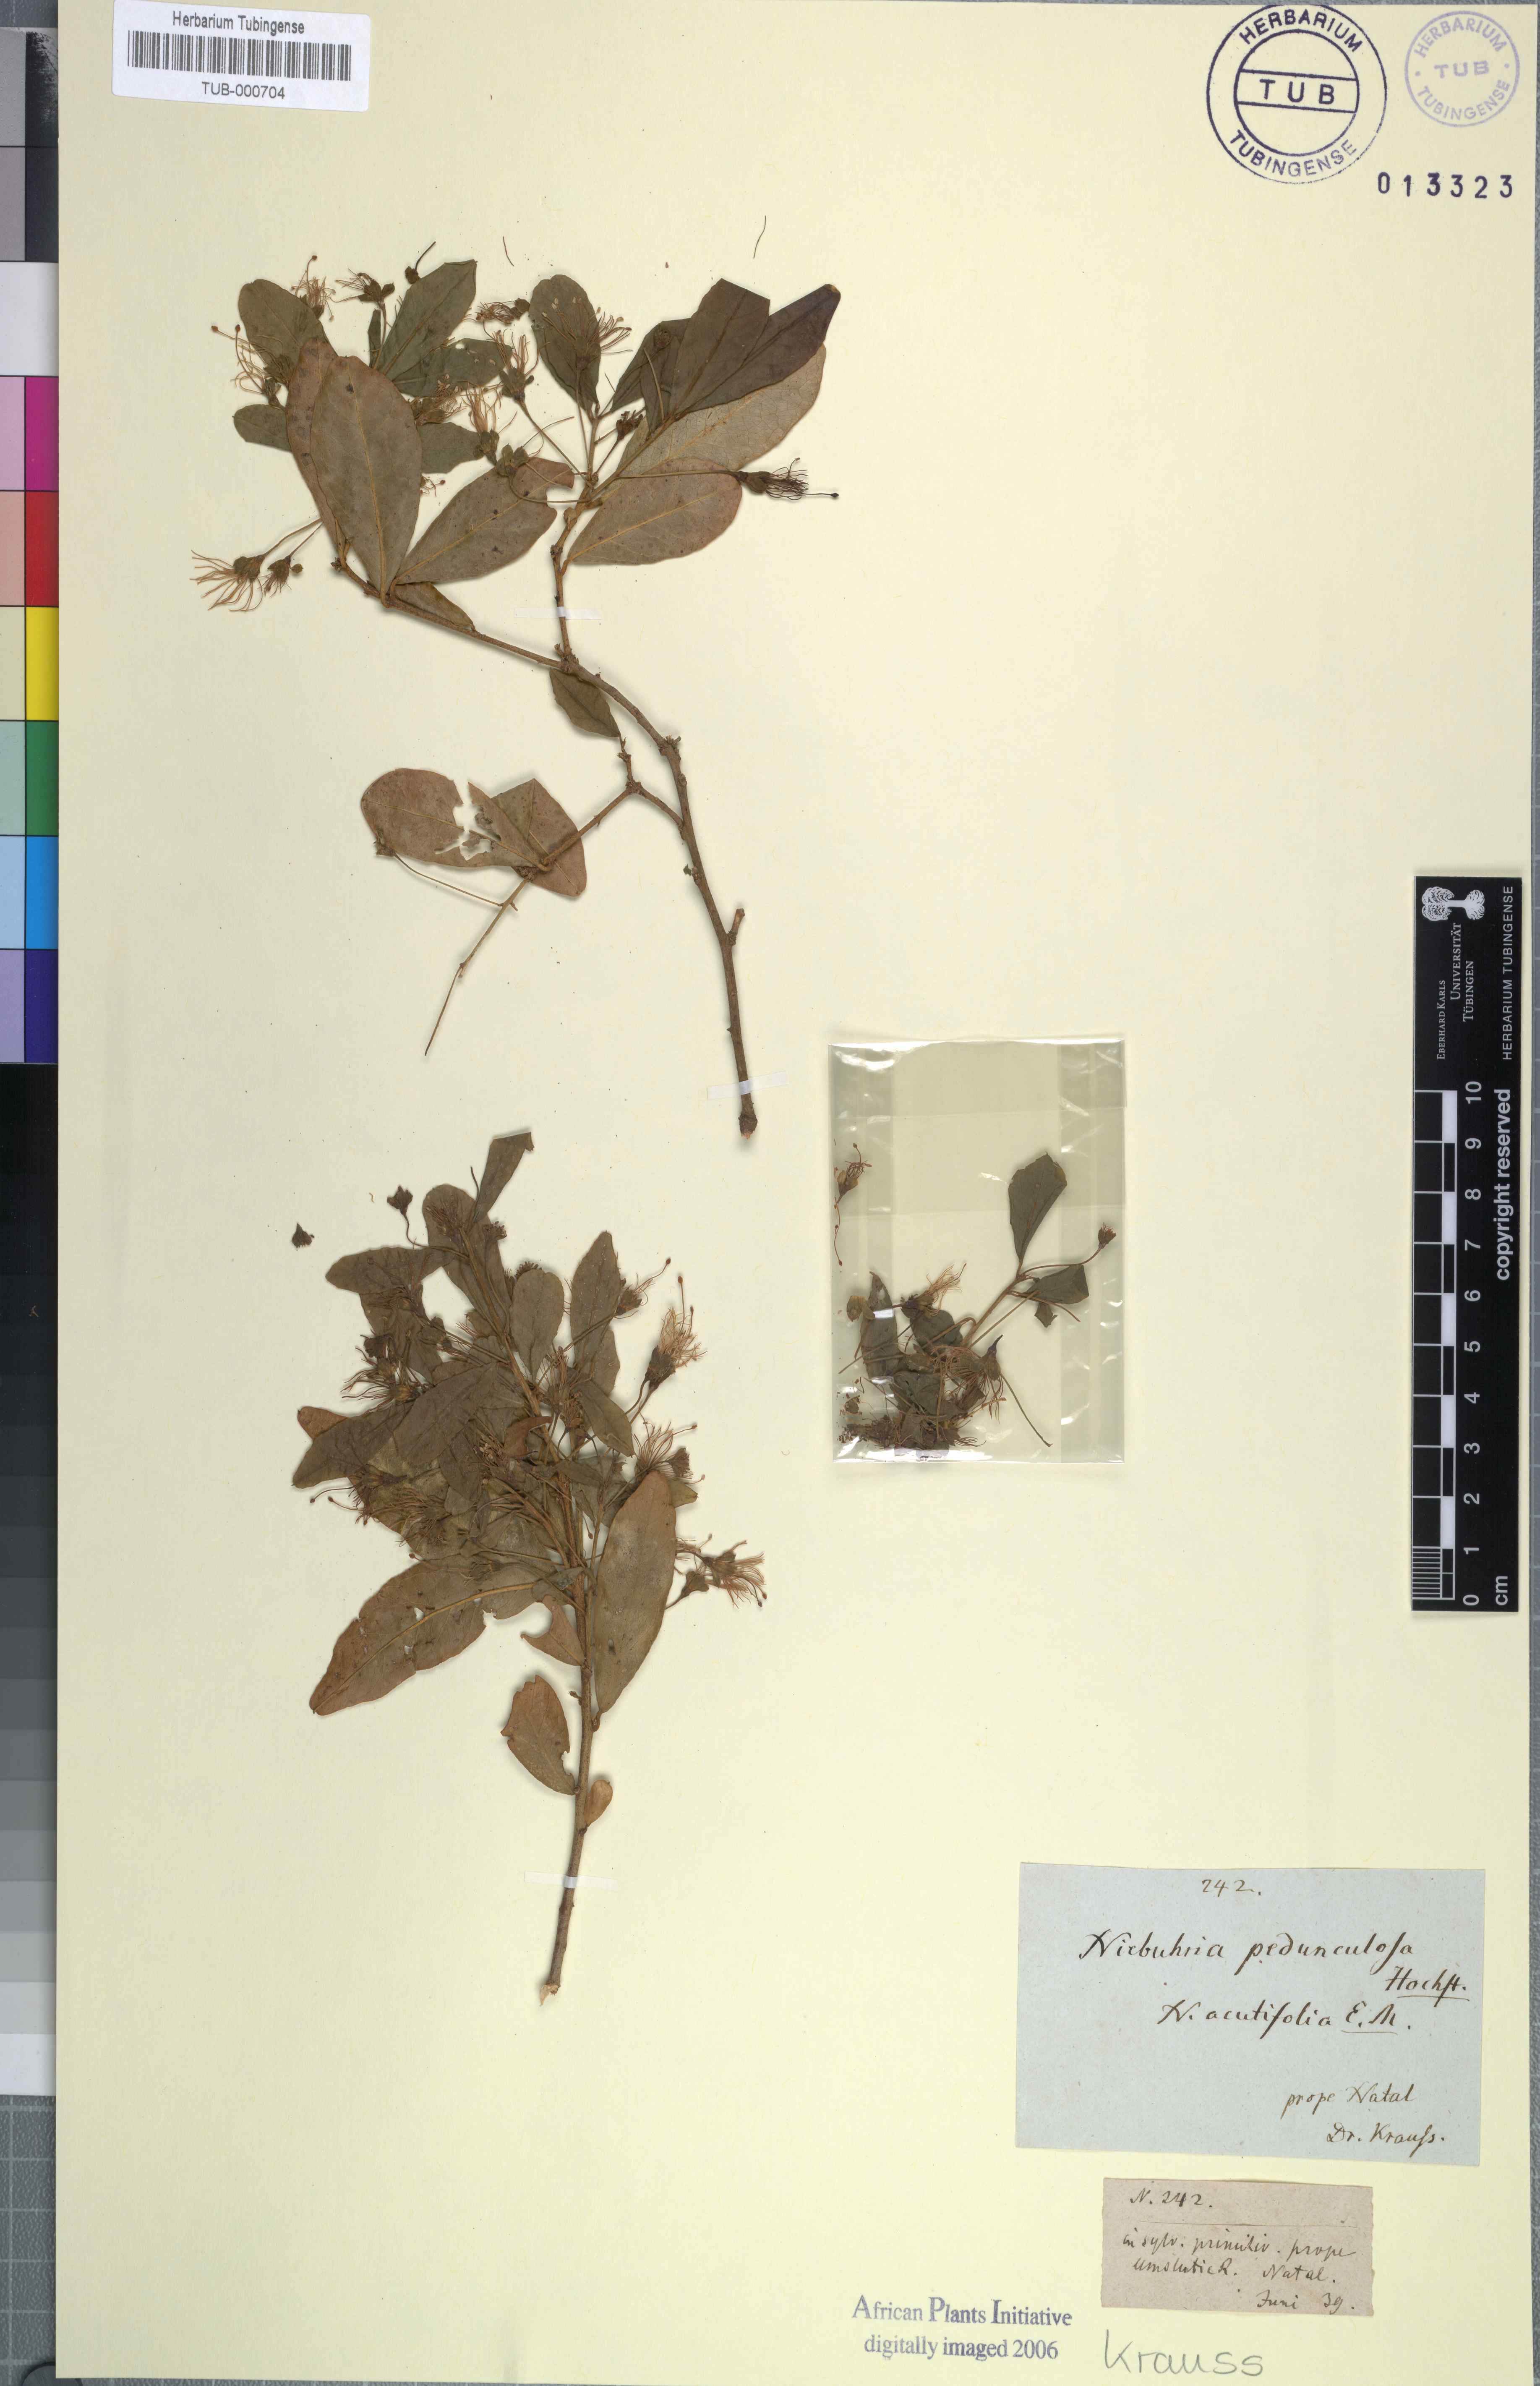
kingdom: Plantae
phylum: Tracheophyta
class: Magnoliopsida
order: Brassicales
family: Capparaceae
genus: Maerua
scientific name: Maerua cafra
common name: Bush maerua
